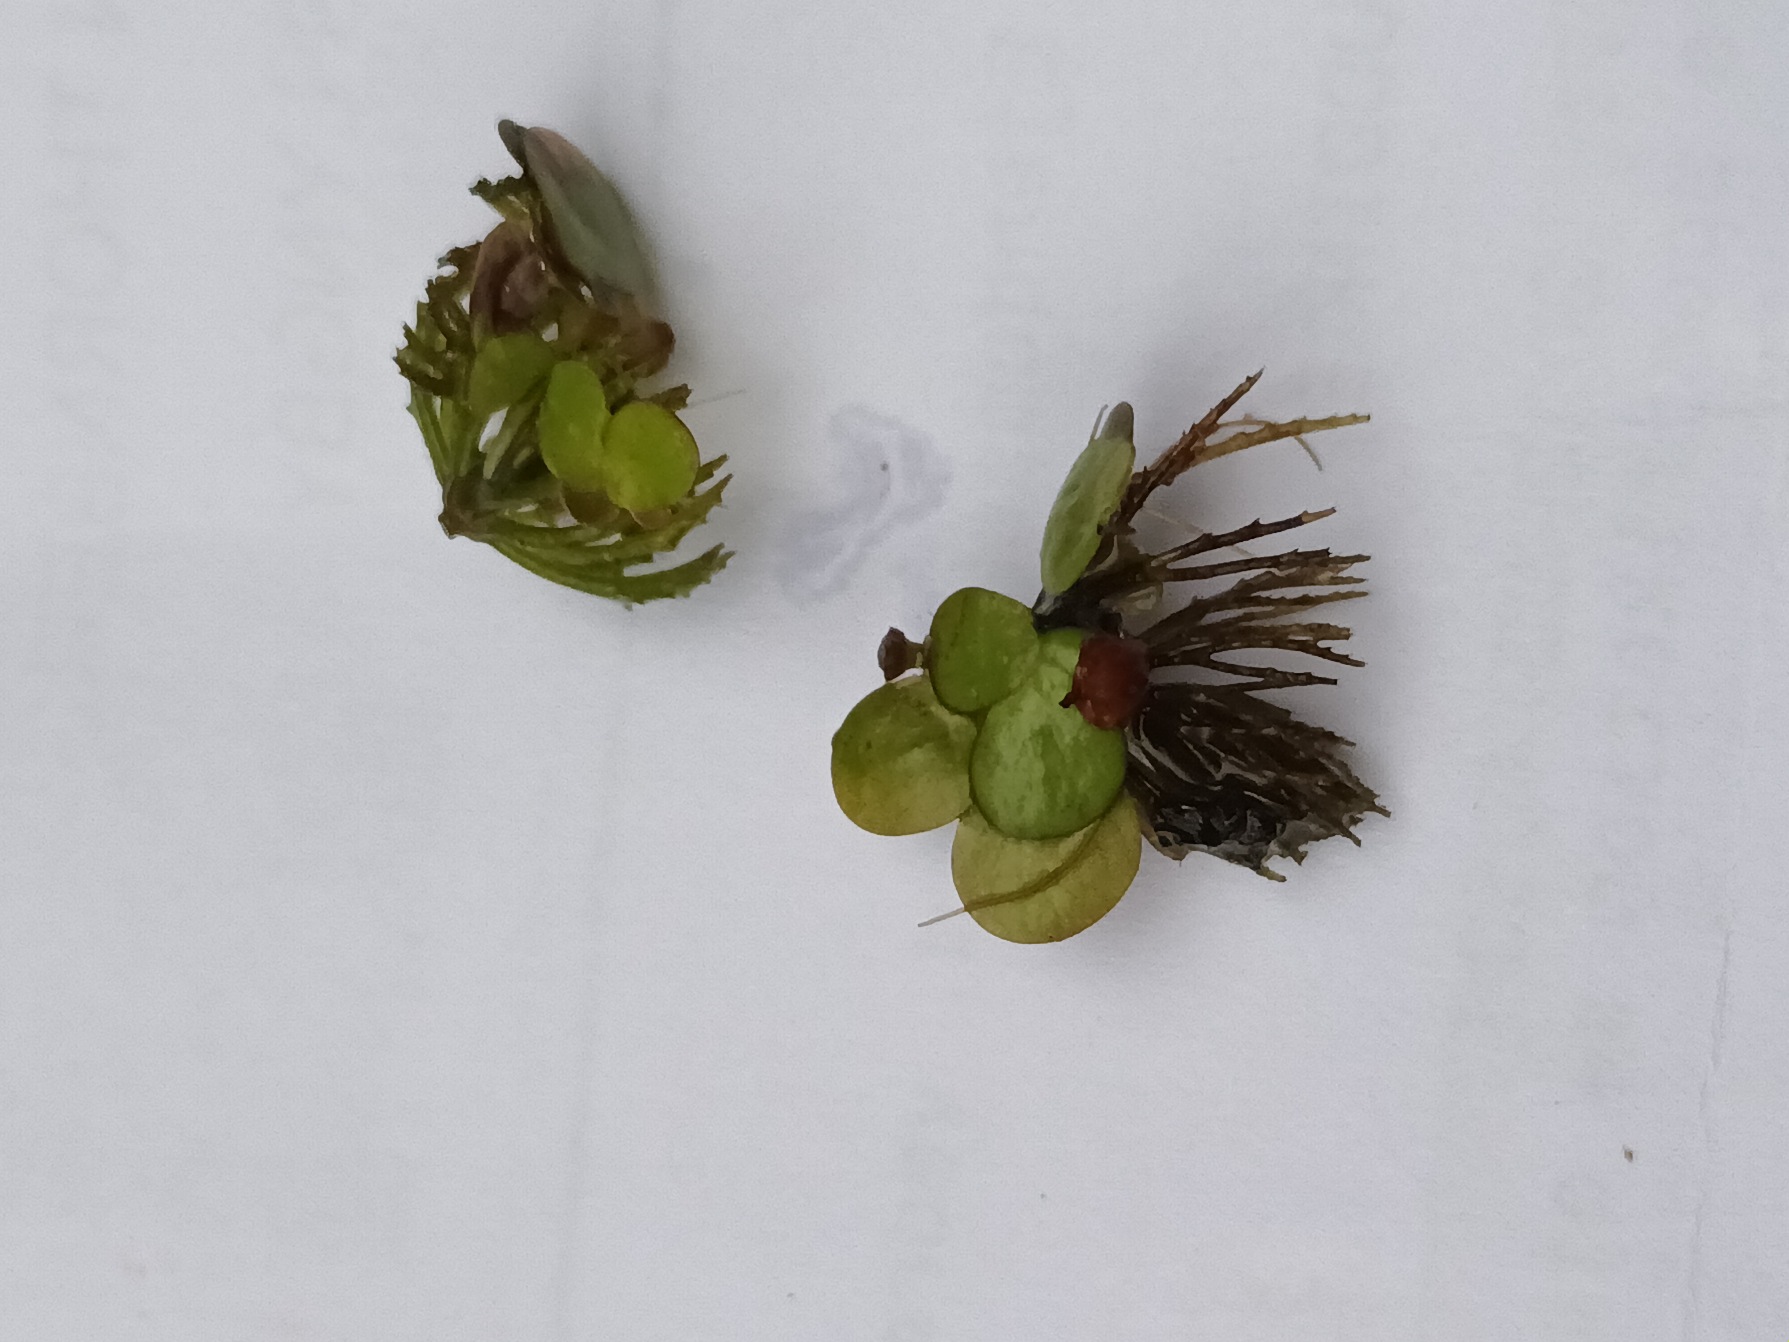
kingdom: Plantae
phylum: Tracheophyta
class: Liliopsida
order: Alismatales
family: Araceae
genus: Spirodela
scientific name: Spirodela polyrhiza
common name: Stor andemad
